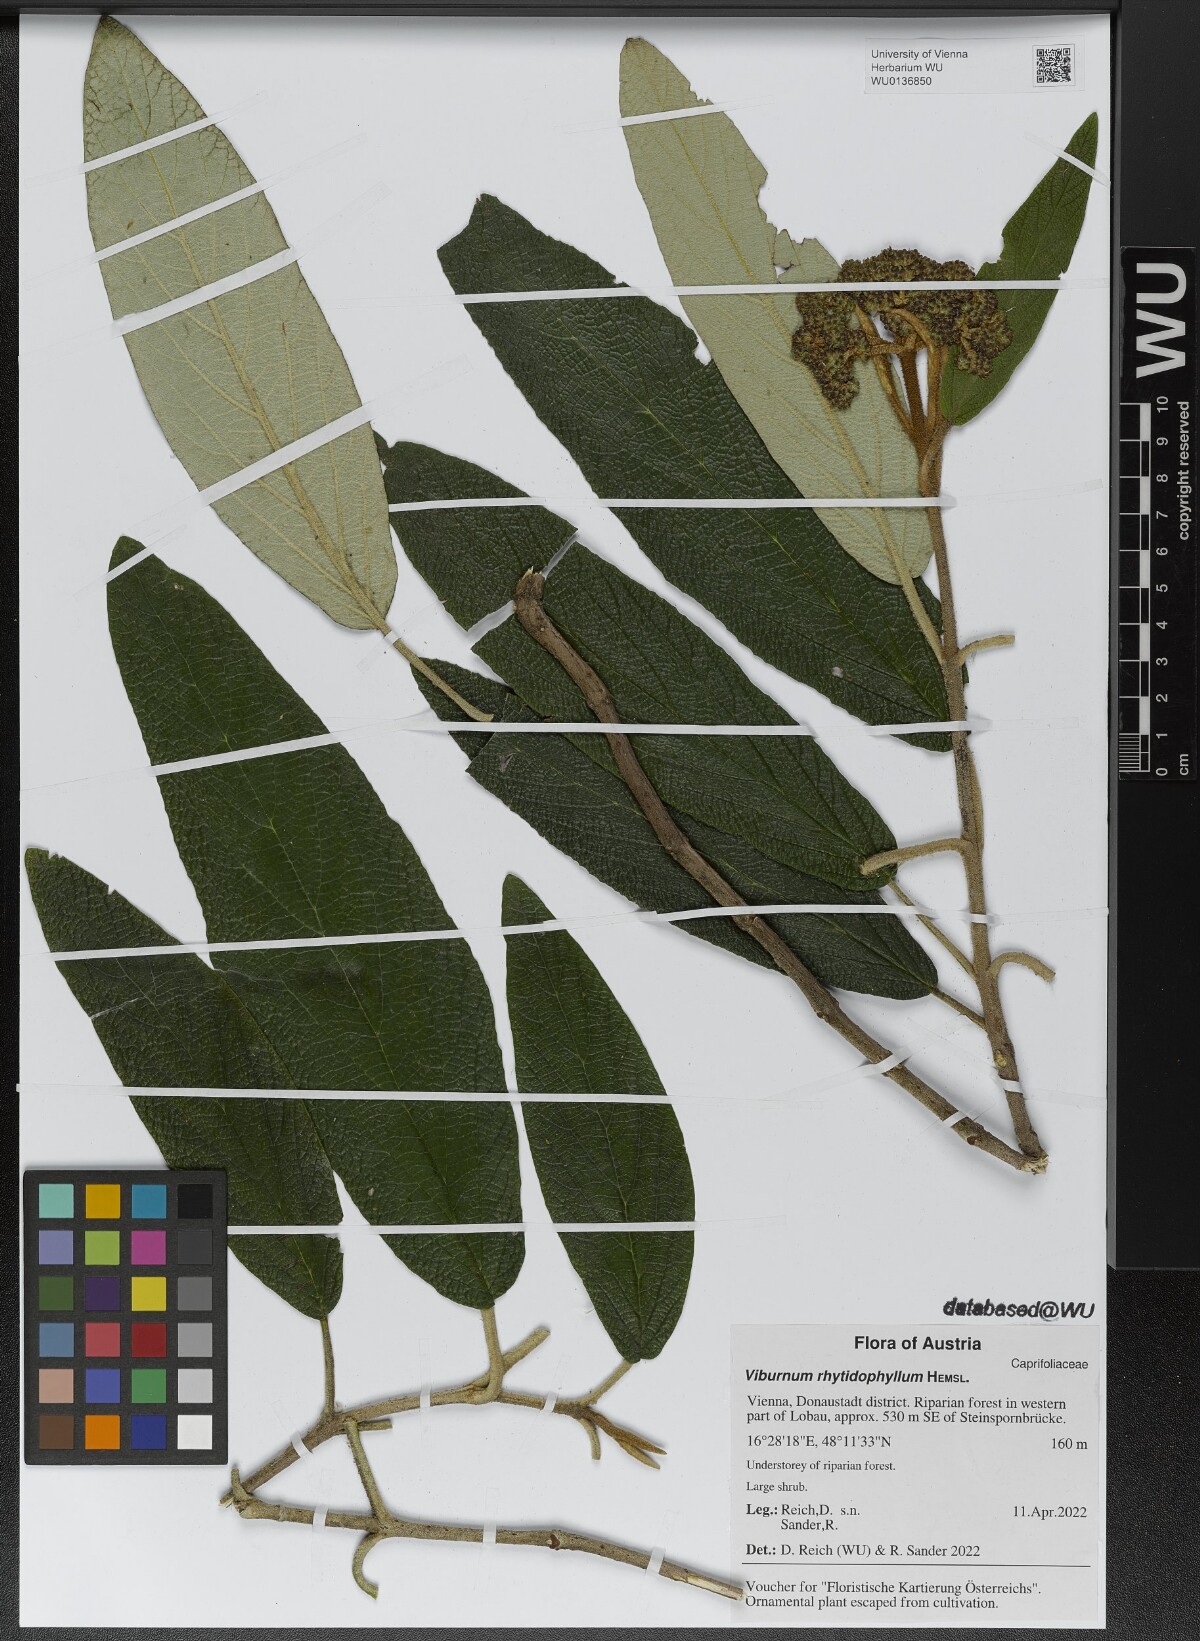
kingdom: Plantae
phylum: Tracheophyta
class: Magnoliopsida
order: Dipsacales
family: Viburnaceae
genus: Viburnum
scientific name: Viburnum rhytidophyllum
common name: Wrinkled viburnum
